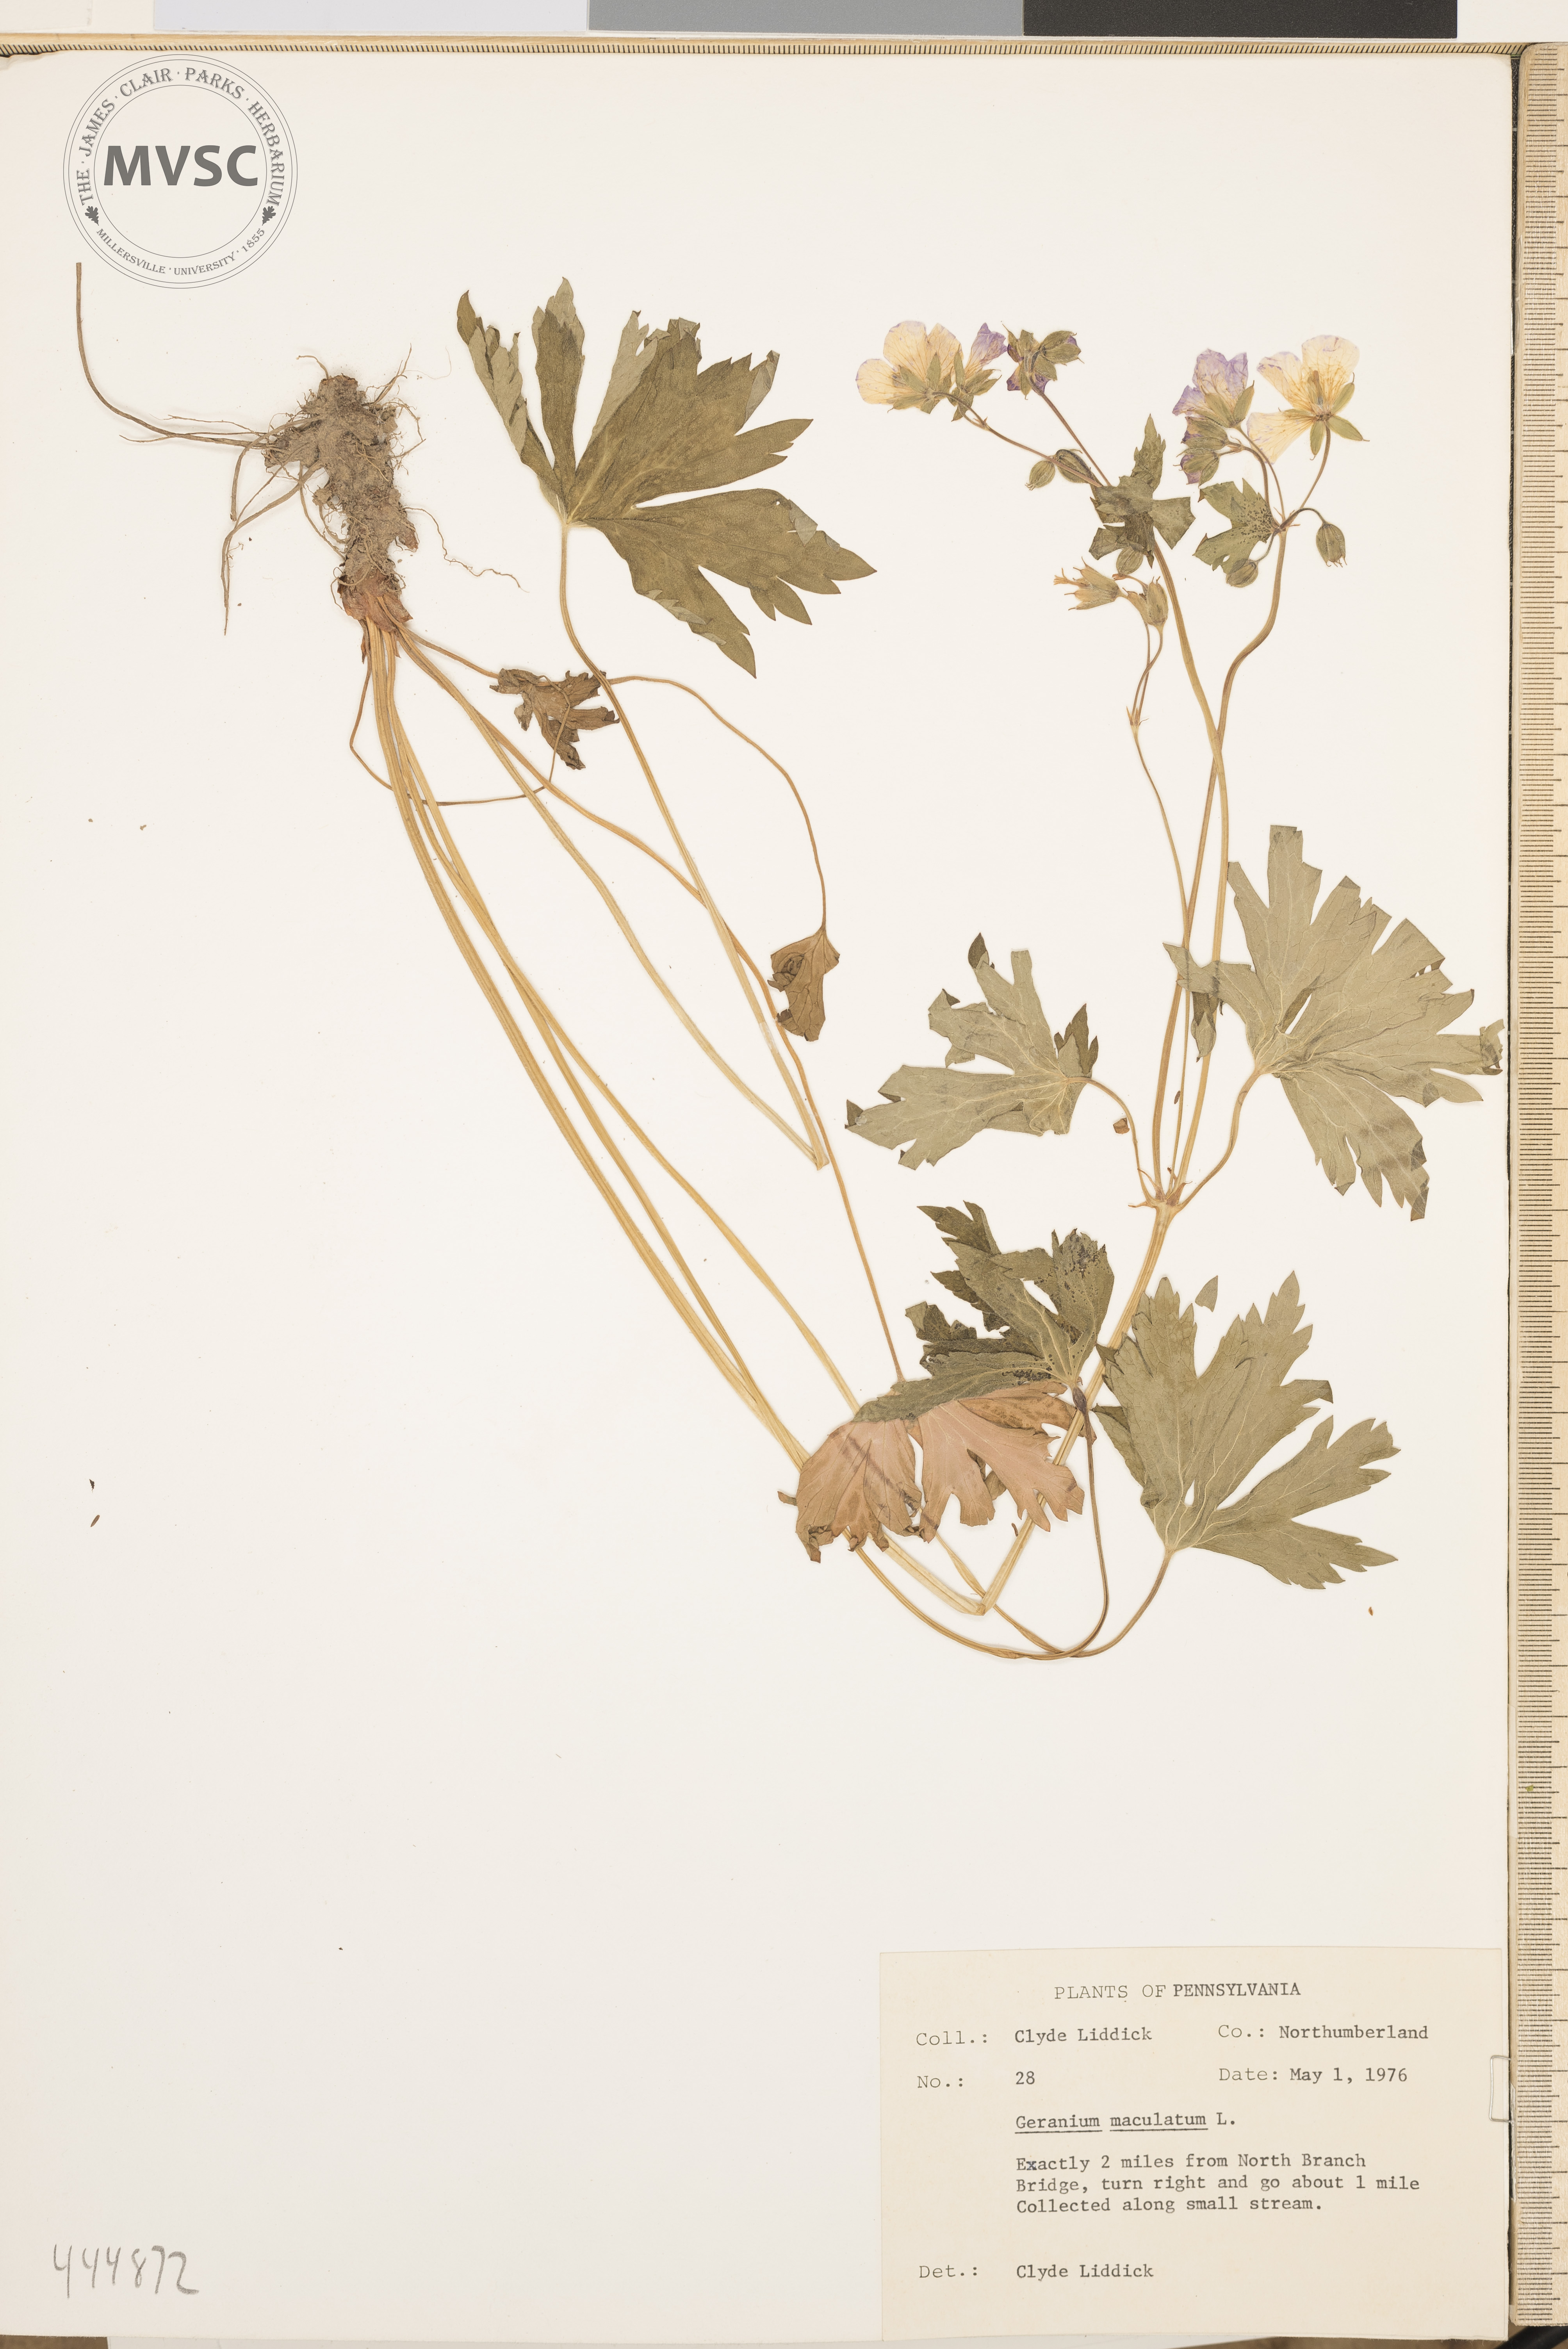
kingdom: Plantae
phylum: Tracheophyta
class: Magnoliopsida
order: Geraniales
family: Geraniaceae
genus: Geranium
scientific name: Geranium maculatum
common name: Spotted geranium
